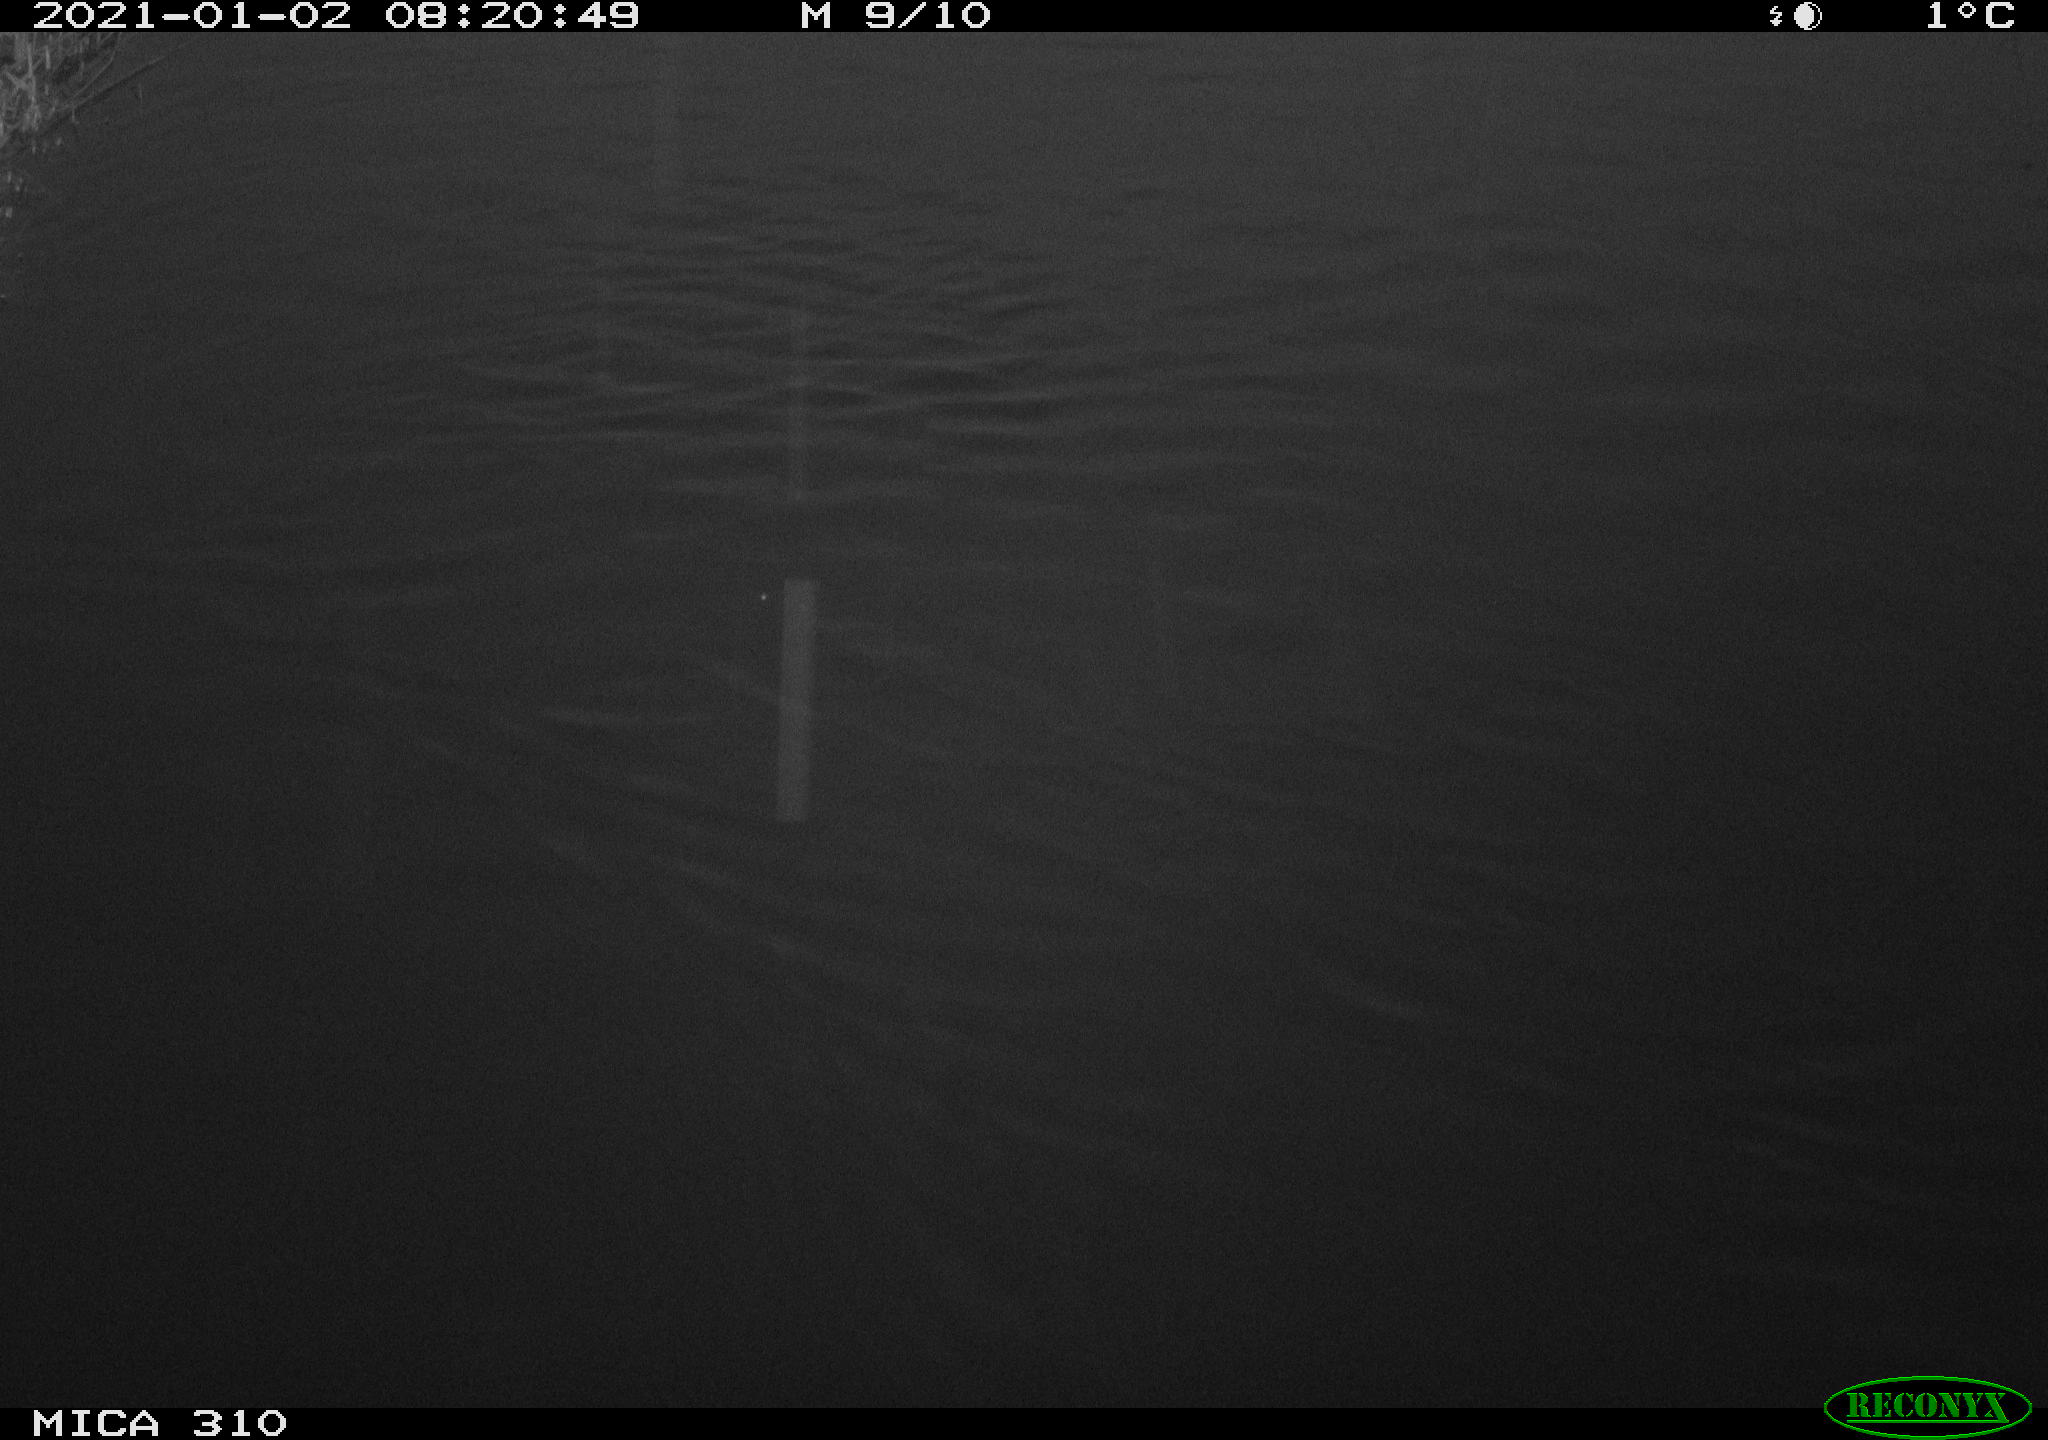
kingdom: Animalia
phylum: Chordata
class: Aves
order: Gruiformes
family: Rallidae
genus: Fulica
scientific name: Fulica atra
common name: Eurasian coot
